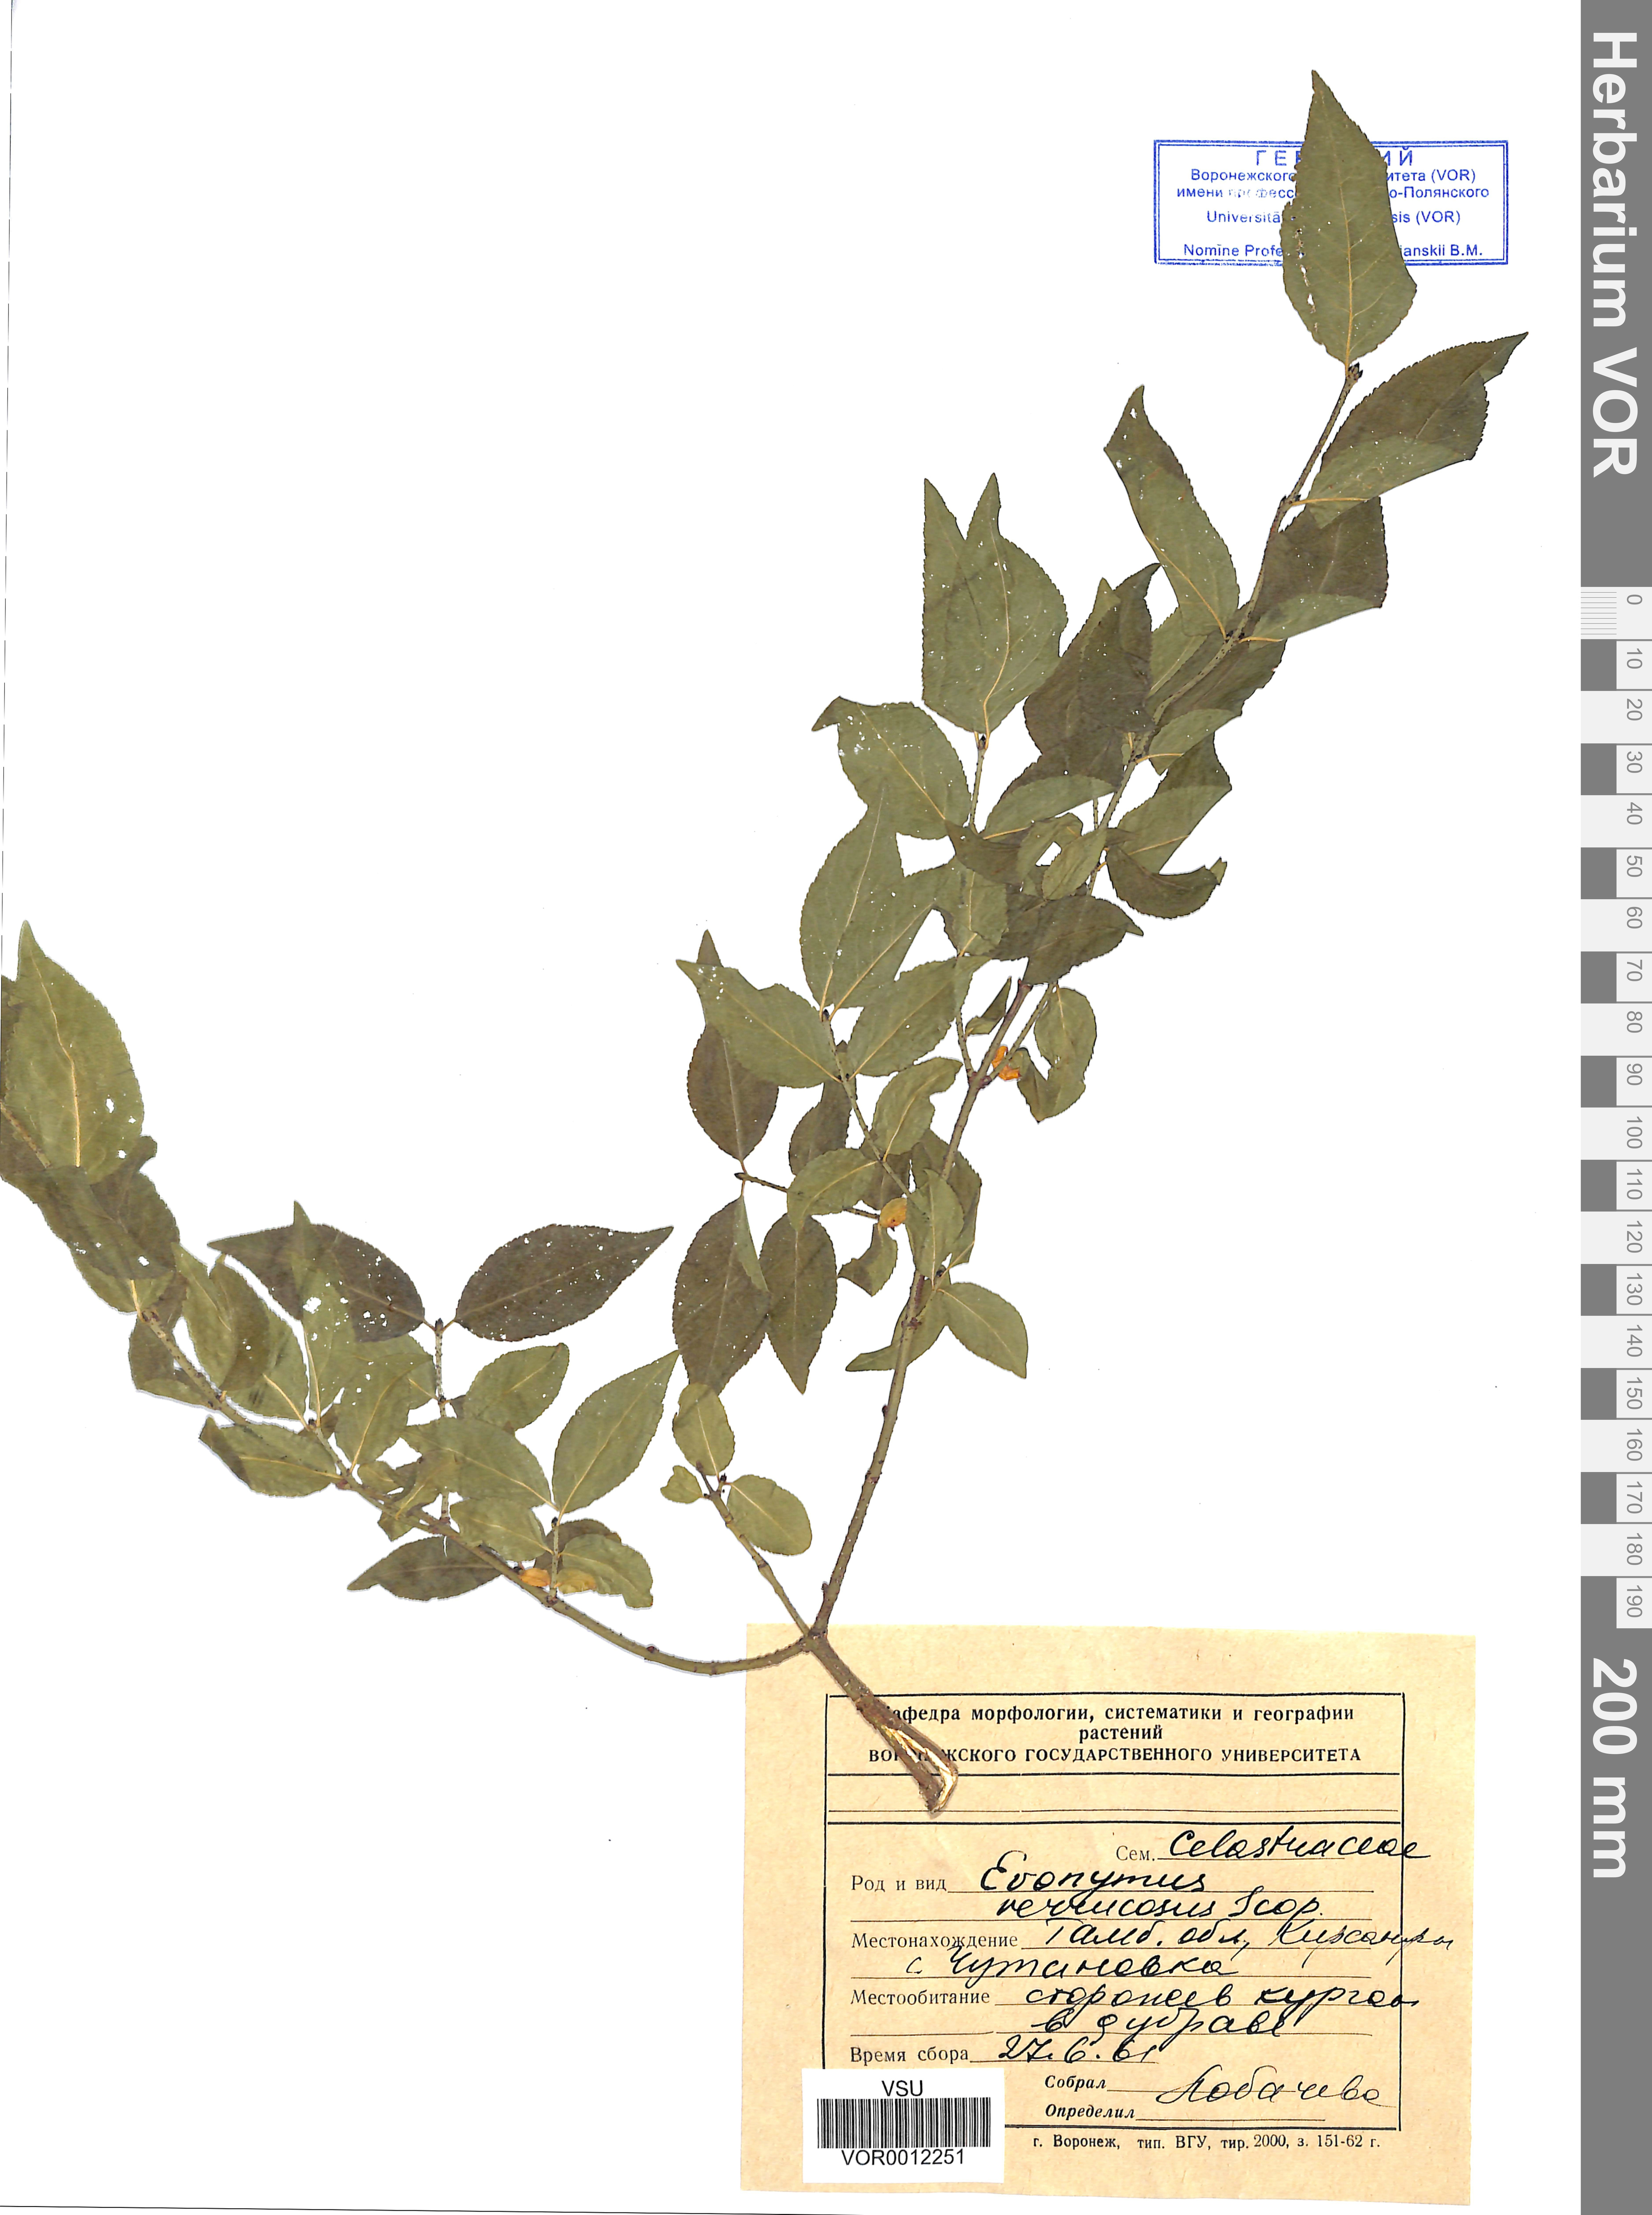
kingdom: Plantae
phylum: Tracheophyta
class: Magnoliopsida
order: Celastrales
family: Celastraceae
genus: Euonymus
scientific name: Euonymus verrucosus
